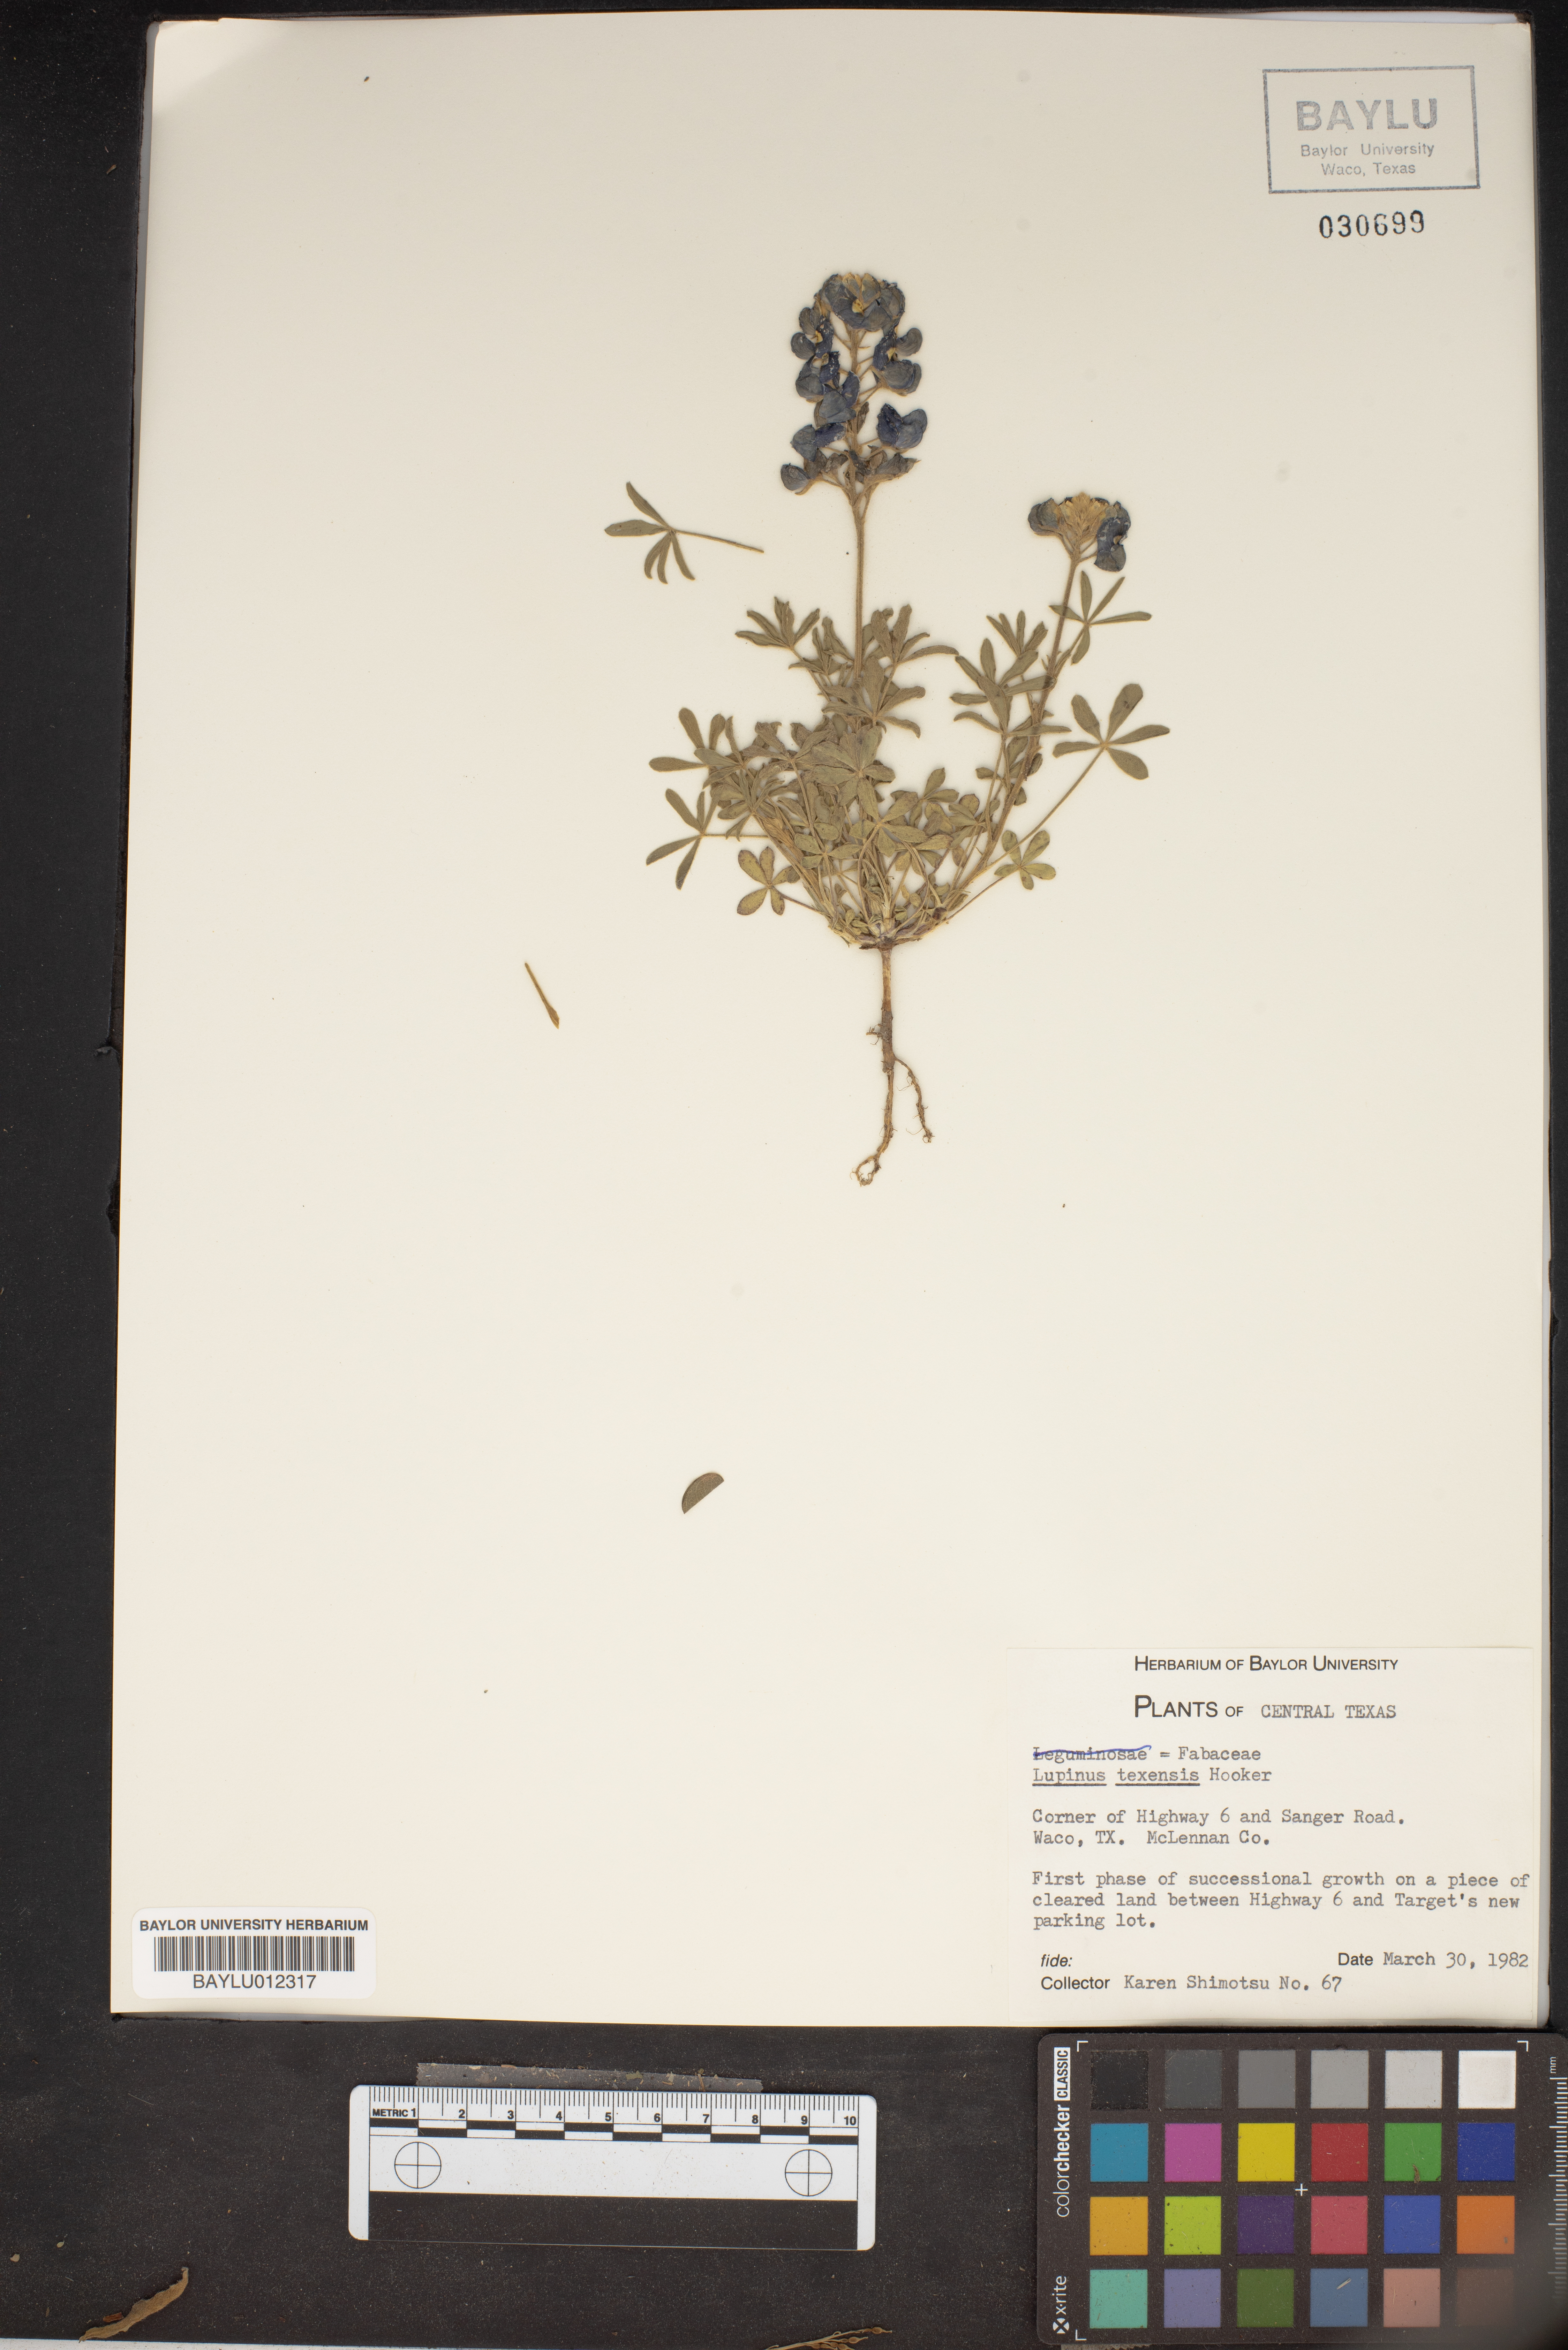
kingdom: Plantae
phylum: Tracheophyta
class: Magnoliopsida
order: Fabales
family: Fabaceae
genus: Lupinus
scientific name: Lupinus texensis
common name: Texas bluebonnet
